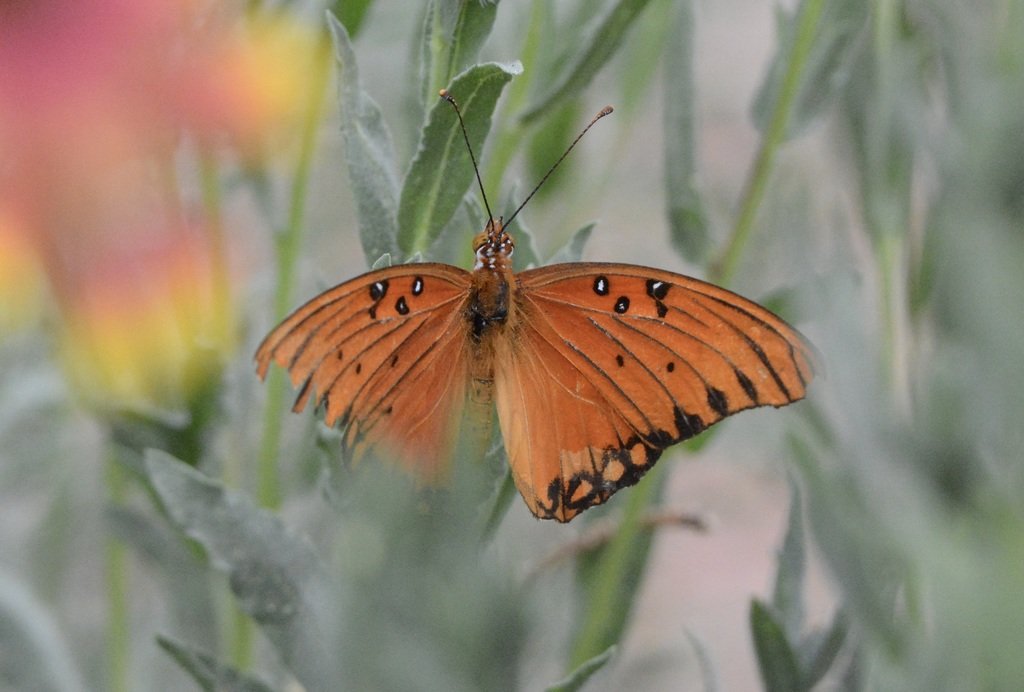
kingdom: Animalia
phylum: Arthropoda
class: Insecta
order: Lepidoptera
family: Nymphalidae
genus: Dione
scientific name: Dione vanillae
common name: Gulf Fritillary
